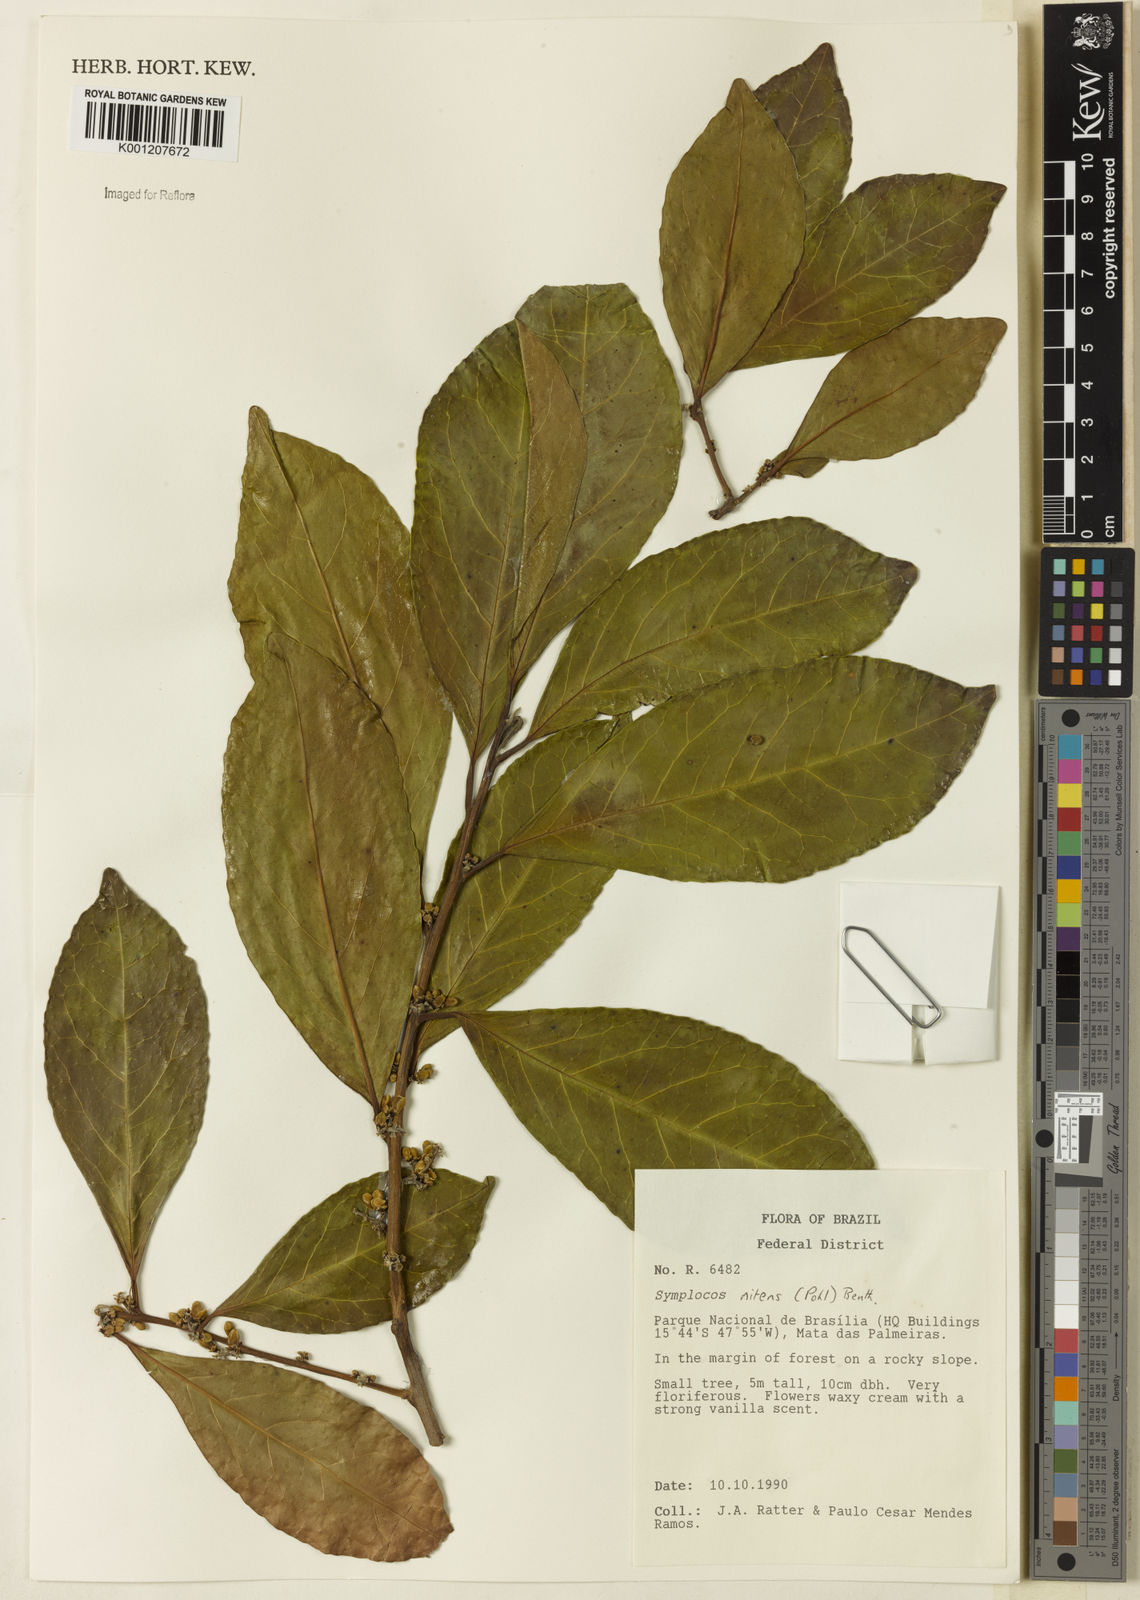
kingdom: Plantae
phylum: Tracheophyta
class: Magnoliopsida
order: Ericales
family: Symplocaceae
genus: Symplocos
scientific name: Symplocos nitens
